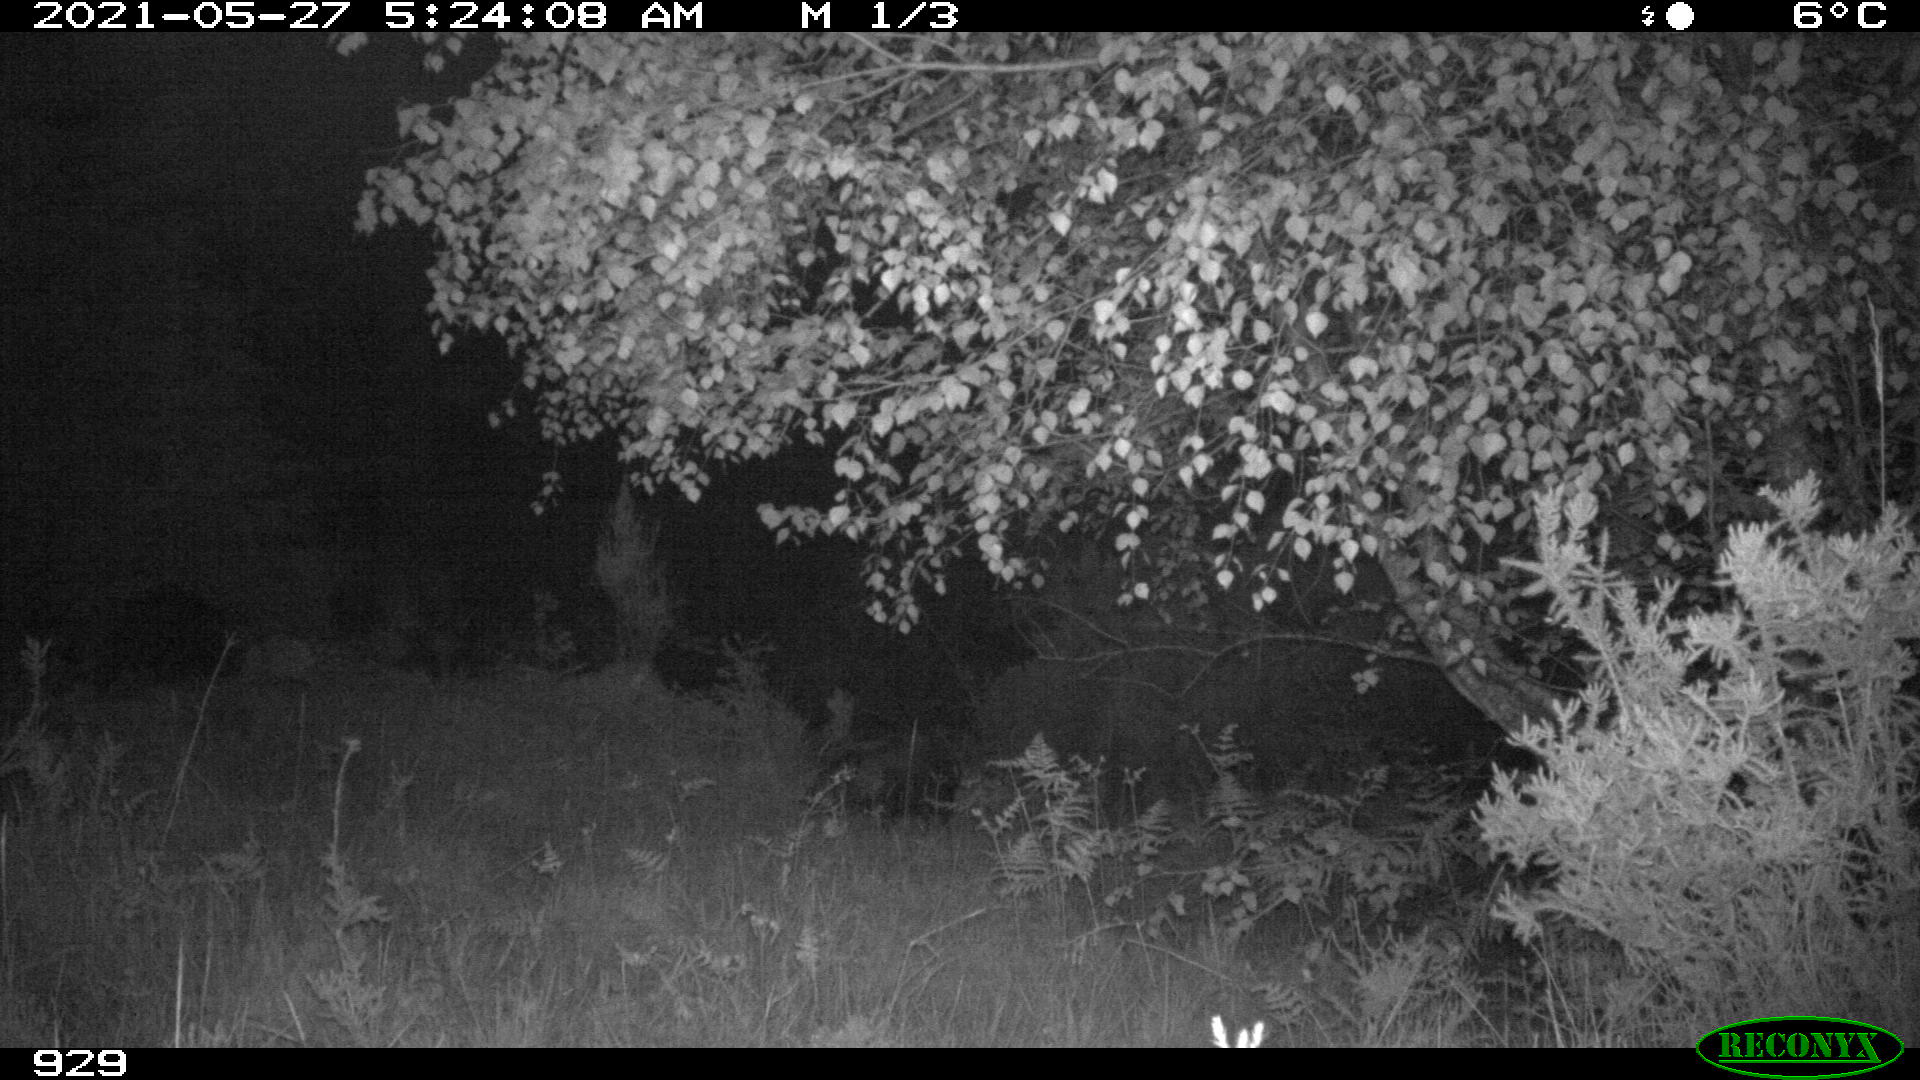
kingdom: Animalia
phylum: Chordata
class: Mammalia
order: Artiodactyla
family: Suidae
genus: Sus
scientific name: Sus scrofa
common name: Wild boar
